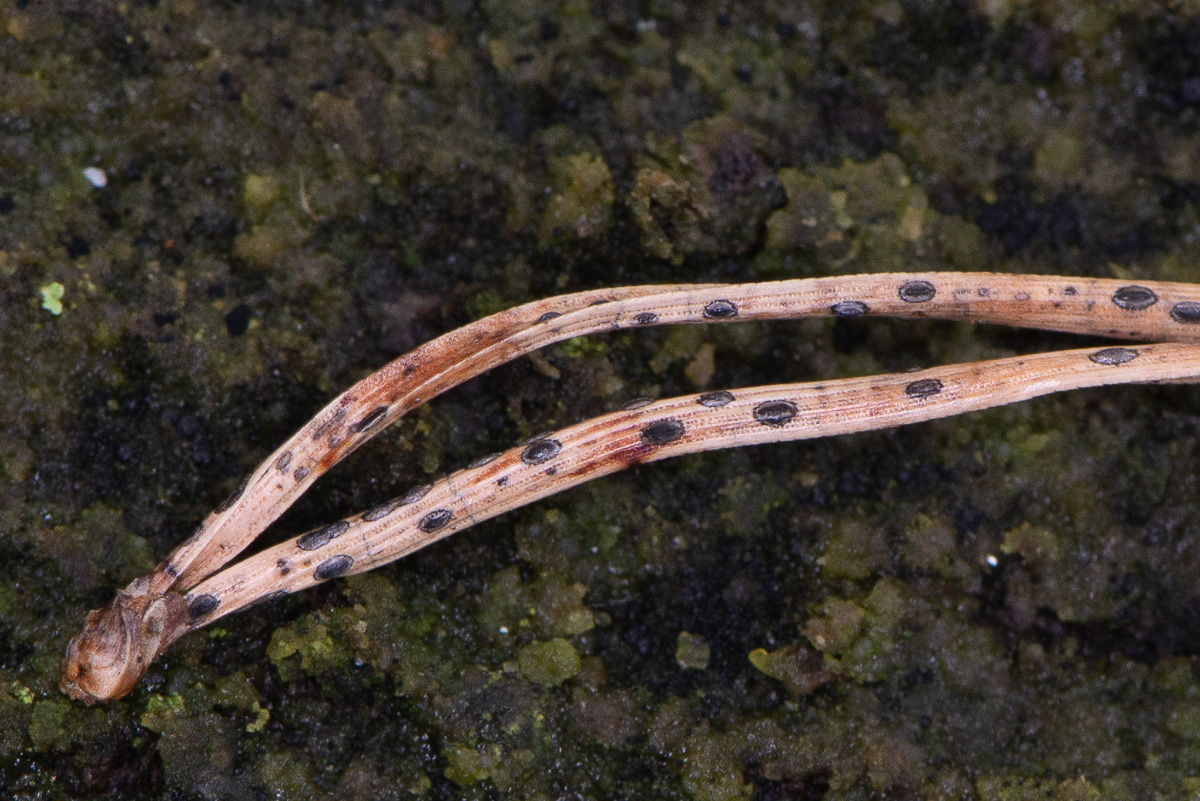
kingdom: Fungi
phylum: Ascomycota
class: Leotiomycetes
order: Rhytismatales
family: Rhytismataceae
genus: Lophodermium
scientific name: Lophodermium pinastri
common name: fyrre-fureplet
